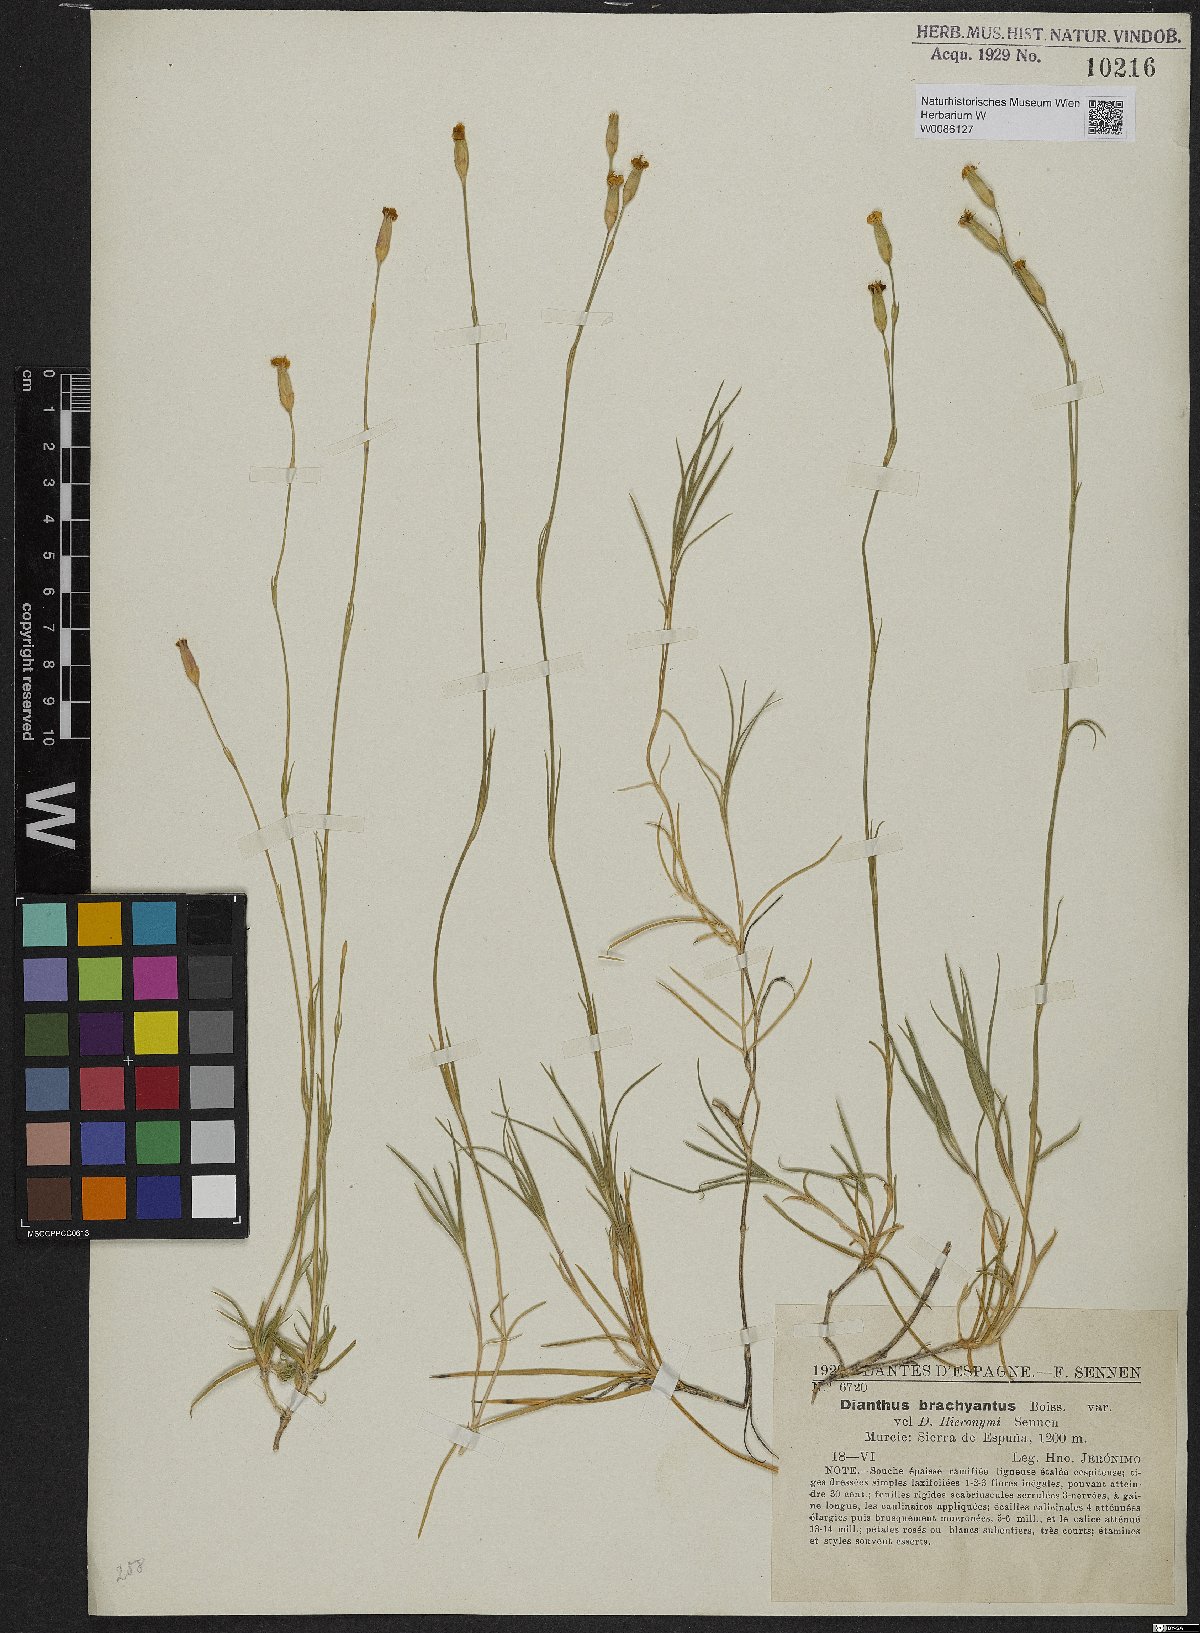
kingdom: Plantae
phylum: Tracheophyta
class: Magnoliopsida
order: Caryophyllales
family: Caryophyllaceae
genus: Dianthus
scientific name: Dianthus pungens
